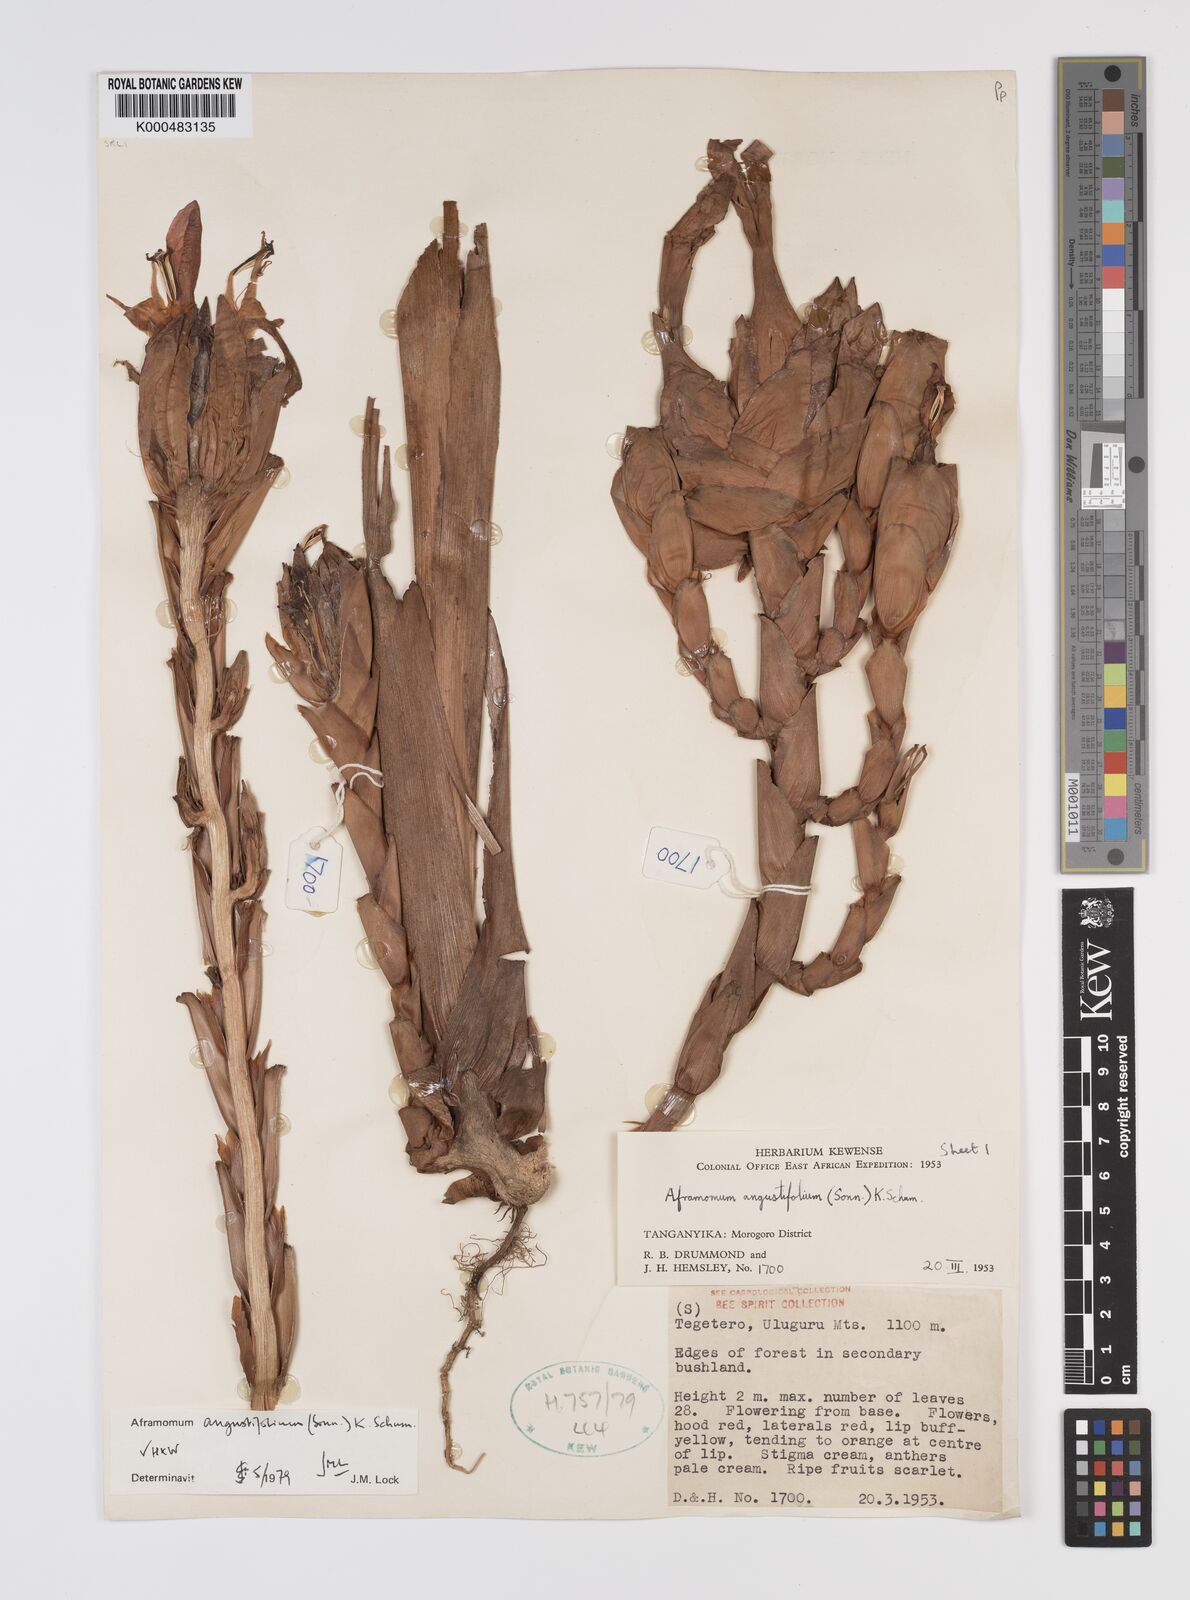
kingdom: Plantae
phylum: Tracheophyta
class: Liliopsida
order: Zingiberales
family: Zingiberaceae
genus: Aframomum
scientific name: Aframomum angustifolium
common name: Guinea grains
